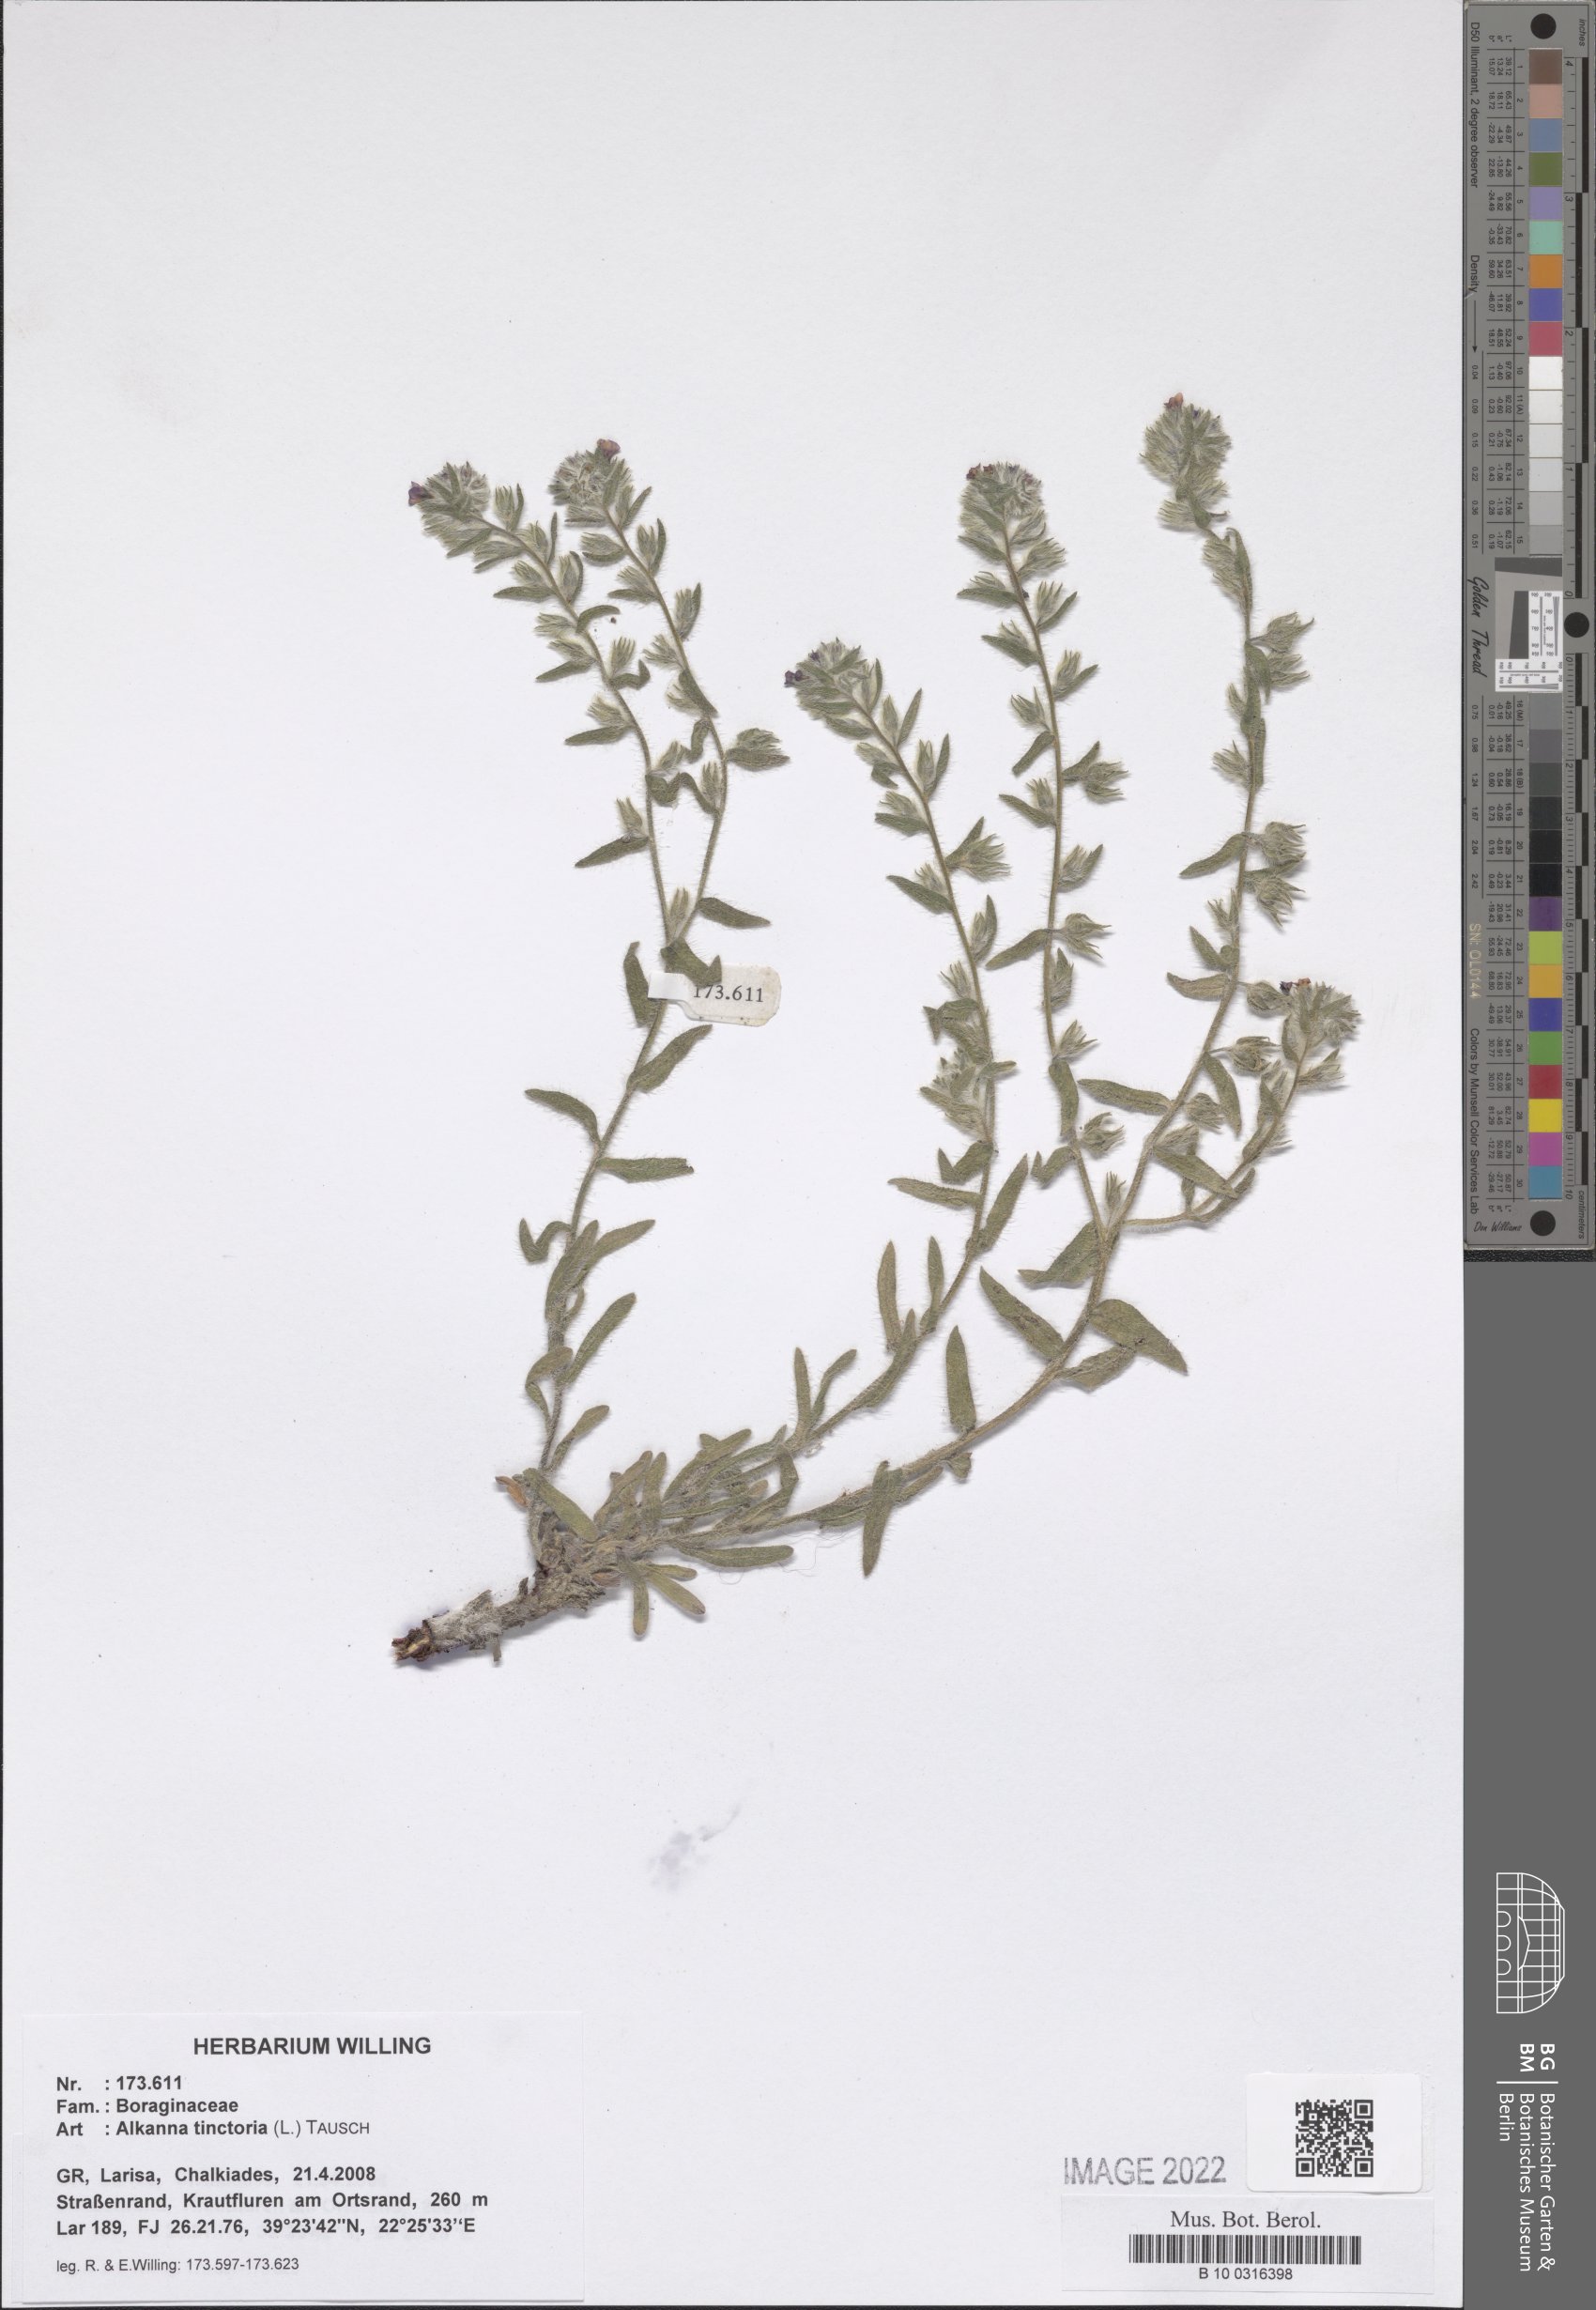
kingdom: Plantae
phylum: Tracheophyta
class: Magnoliopsida
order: Boraginales
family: Boraginaceae
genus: Alkanna
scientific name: Alkanna tinctoria
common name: Dyer's-alkanet
